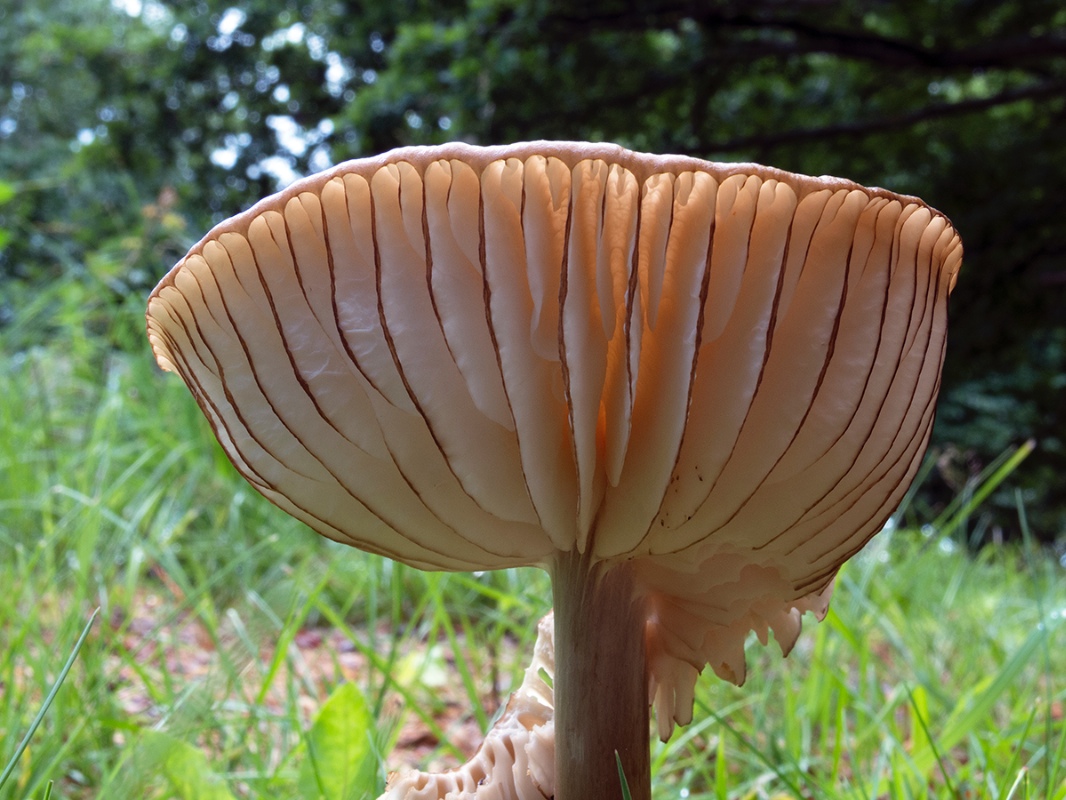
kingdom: Fungi
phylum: Basidiomycota
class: Agaricomycetes
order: Agaricales
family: Physalacriaceae
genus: Hymenopellis
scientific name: Hymenopellis radicata
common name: almindelig pælerodshat
